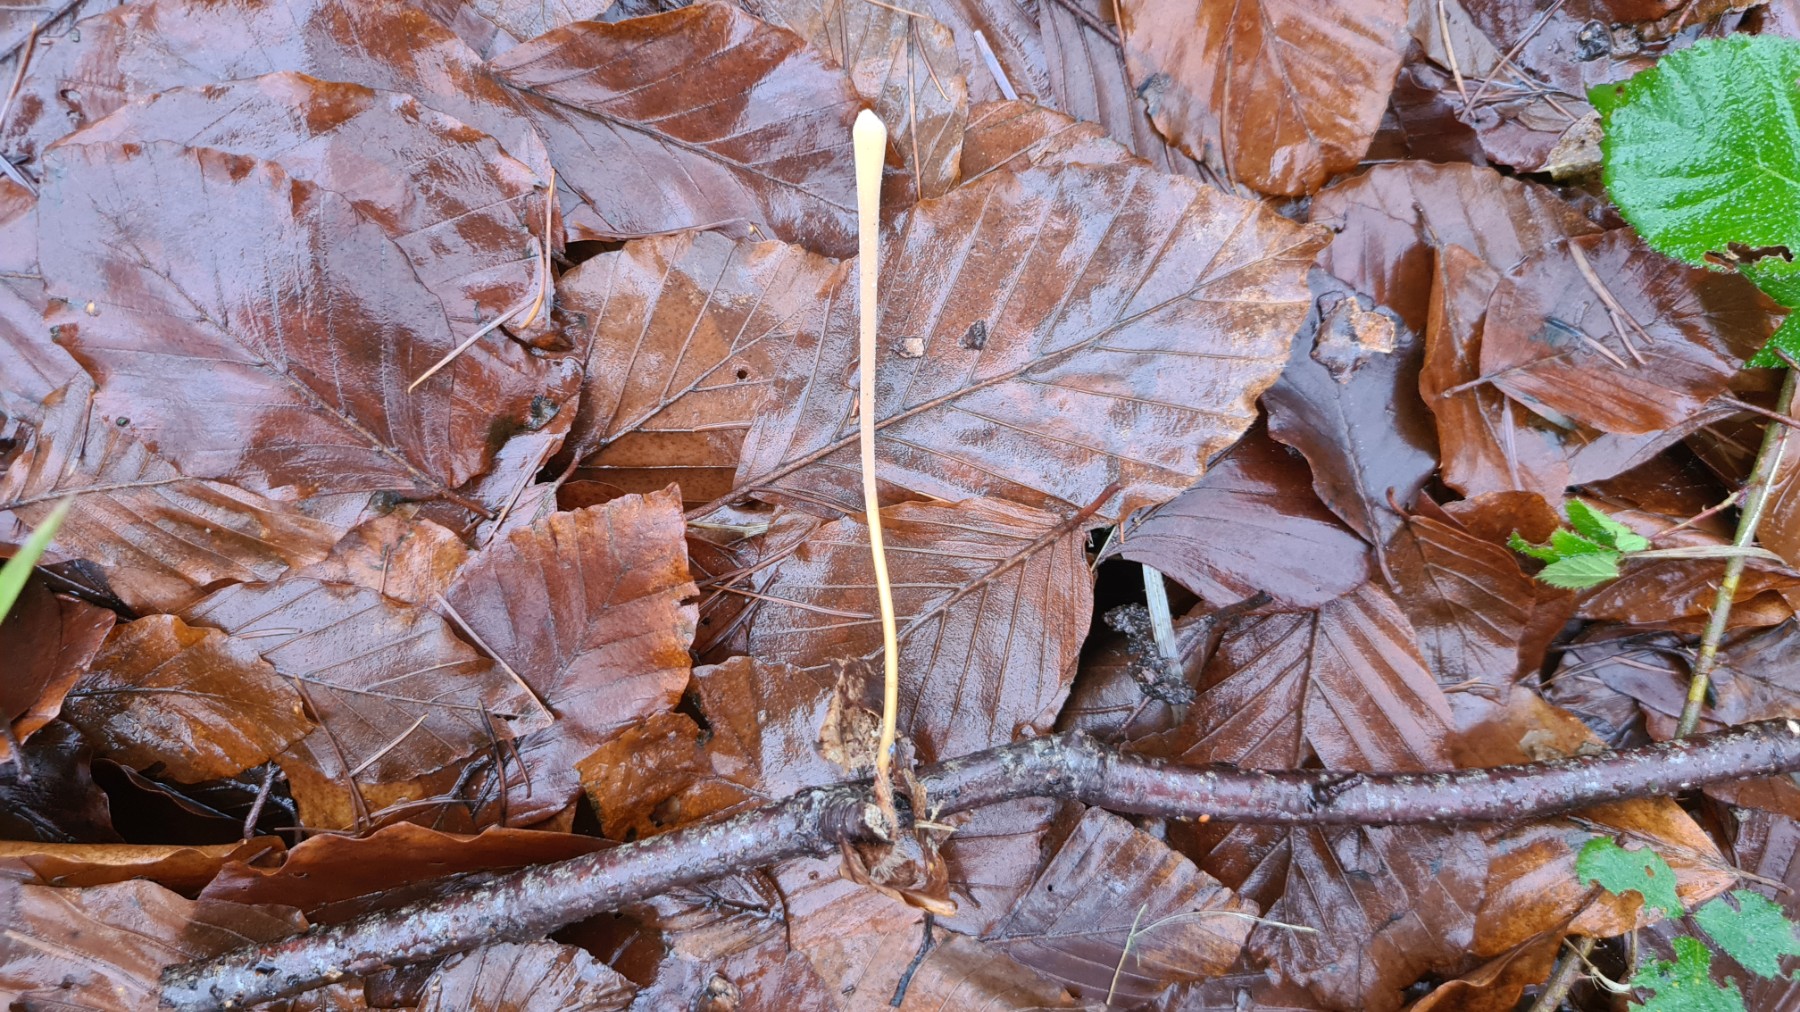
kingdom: Fungi
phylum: Basidiomycota
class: Agaricomycetes
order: Agaricales
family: Typhulaceae
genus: Typhula
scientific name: Typhula fistulosa
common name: pibet rørkølle
